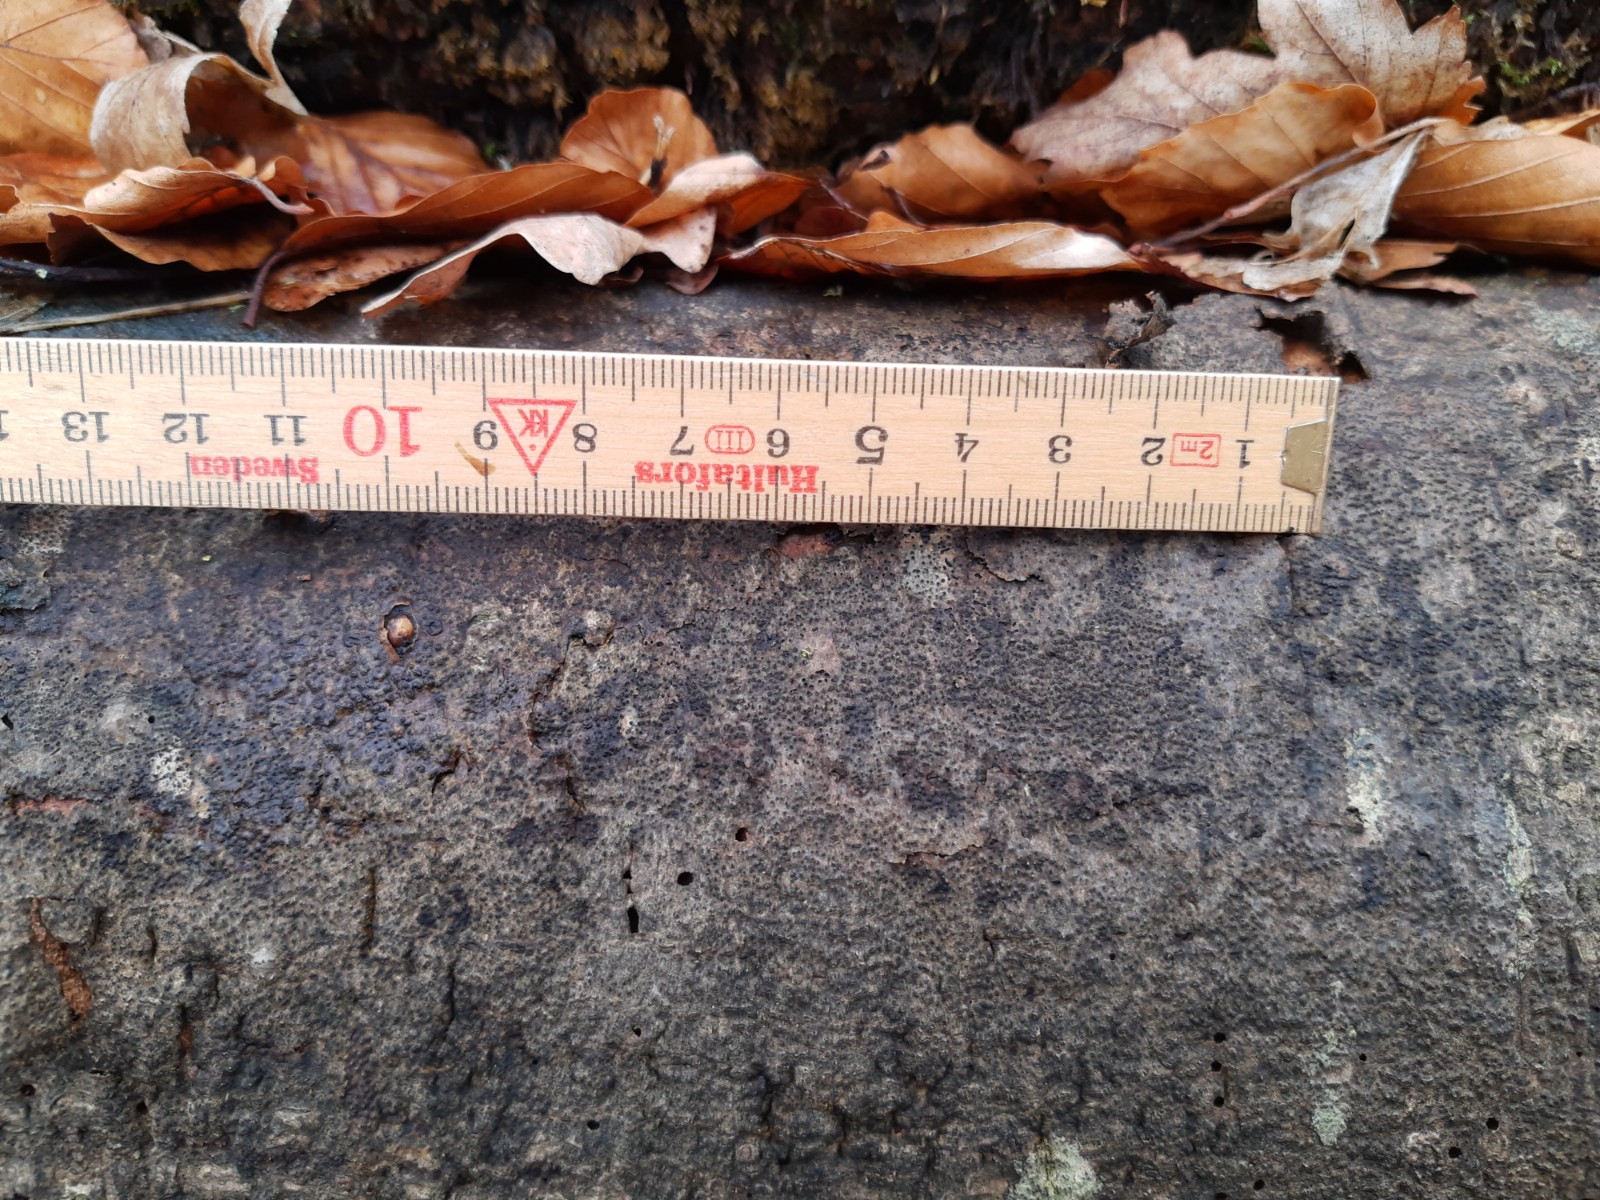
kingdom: Fungi
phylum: Ascomycota
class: Sordariomycetes
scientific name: Sordariomycetes
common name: kernesvampklassen
